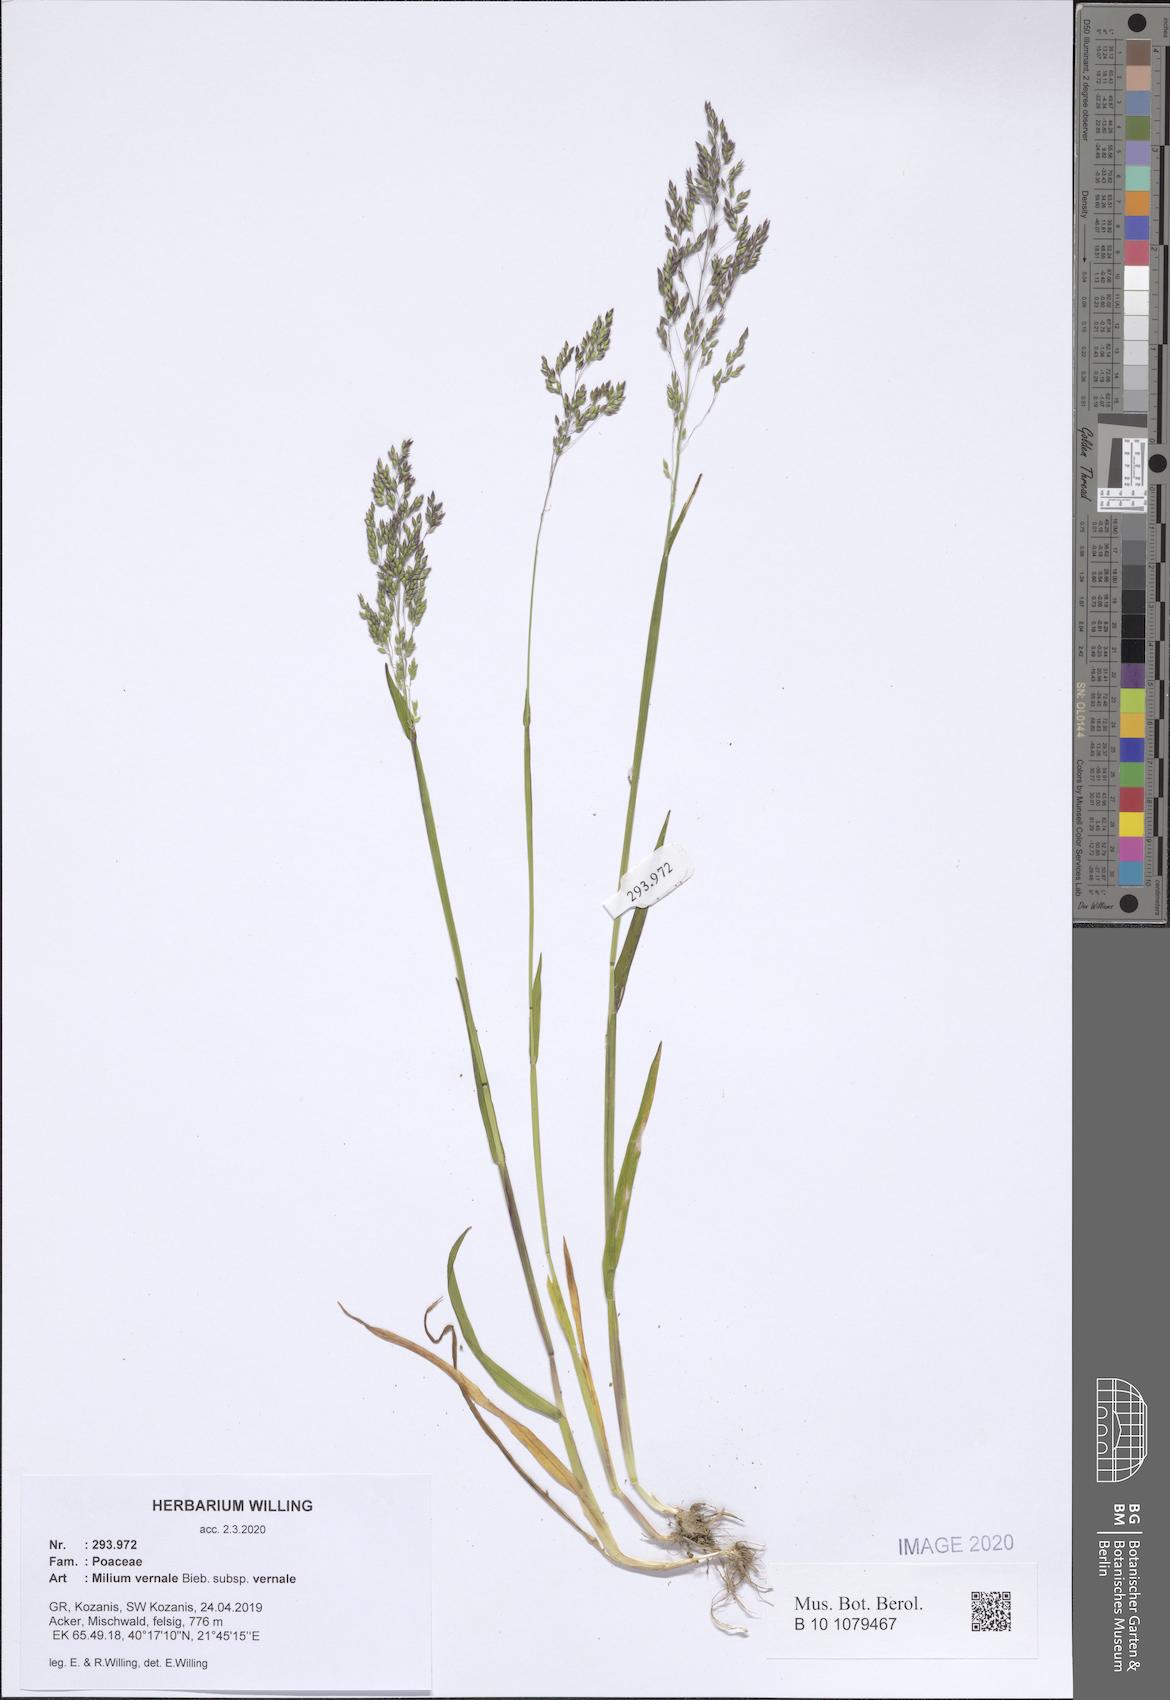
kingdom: Plantae
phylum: Tracheophyta
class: Liliopsida
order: Poales
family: Poaceae
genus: Milium
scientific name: Milium vernale
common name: Early millet
